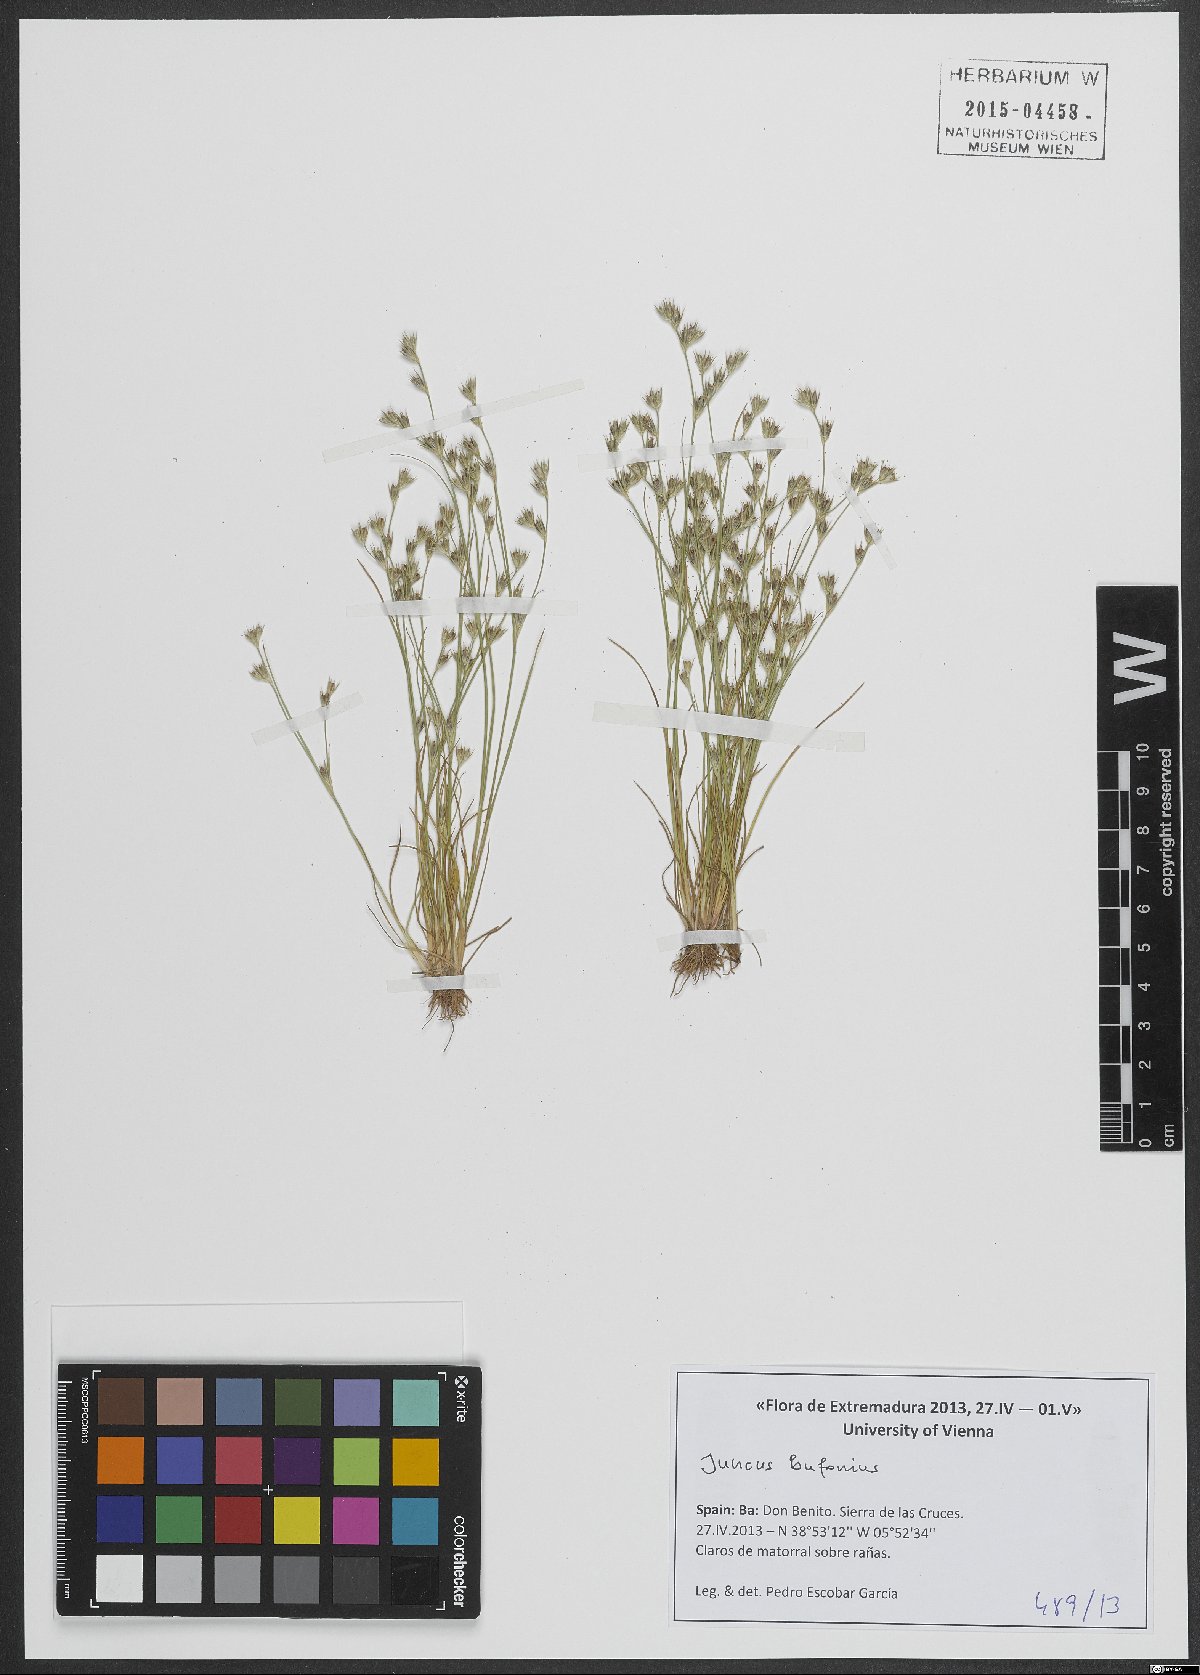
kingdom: Plantae
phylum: Tracheophyta
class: Liliopsida
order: Poales
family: Juncaceae
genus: Juncus
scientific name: Juncus bufonius
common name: Toad rush
